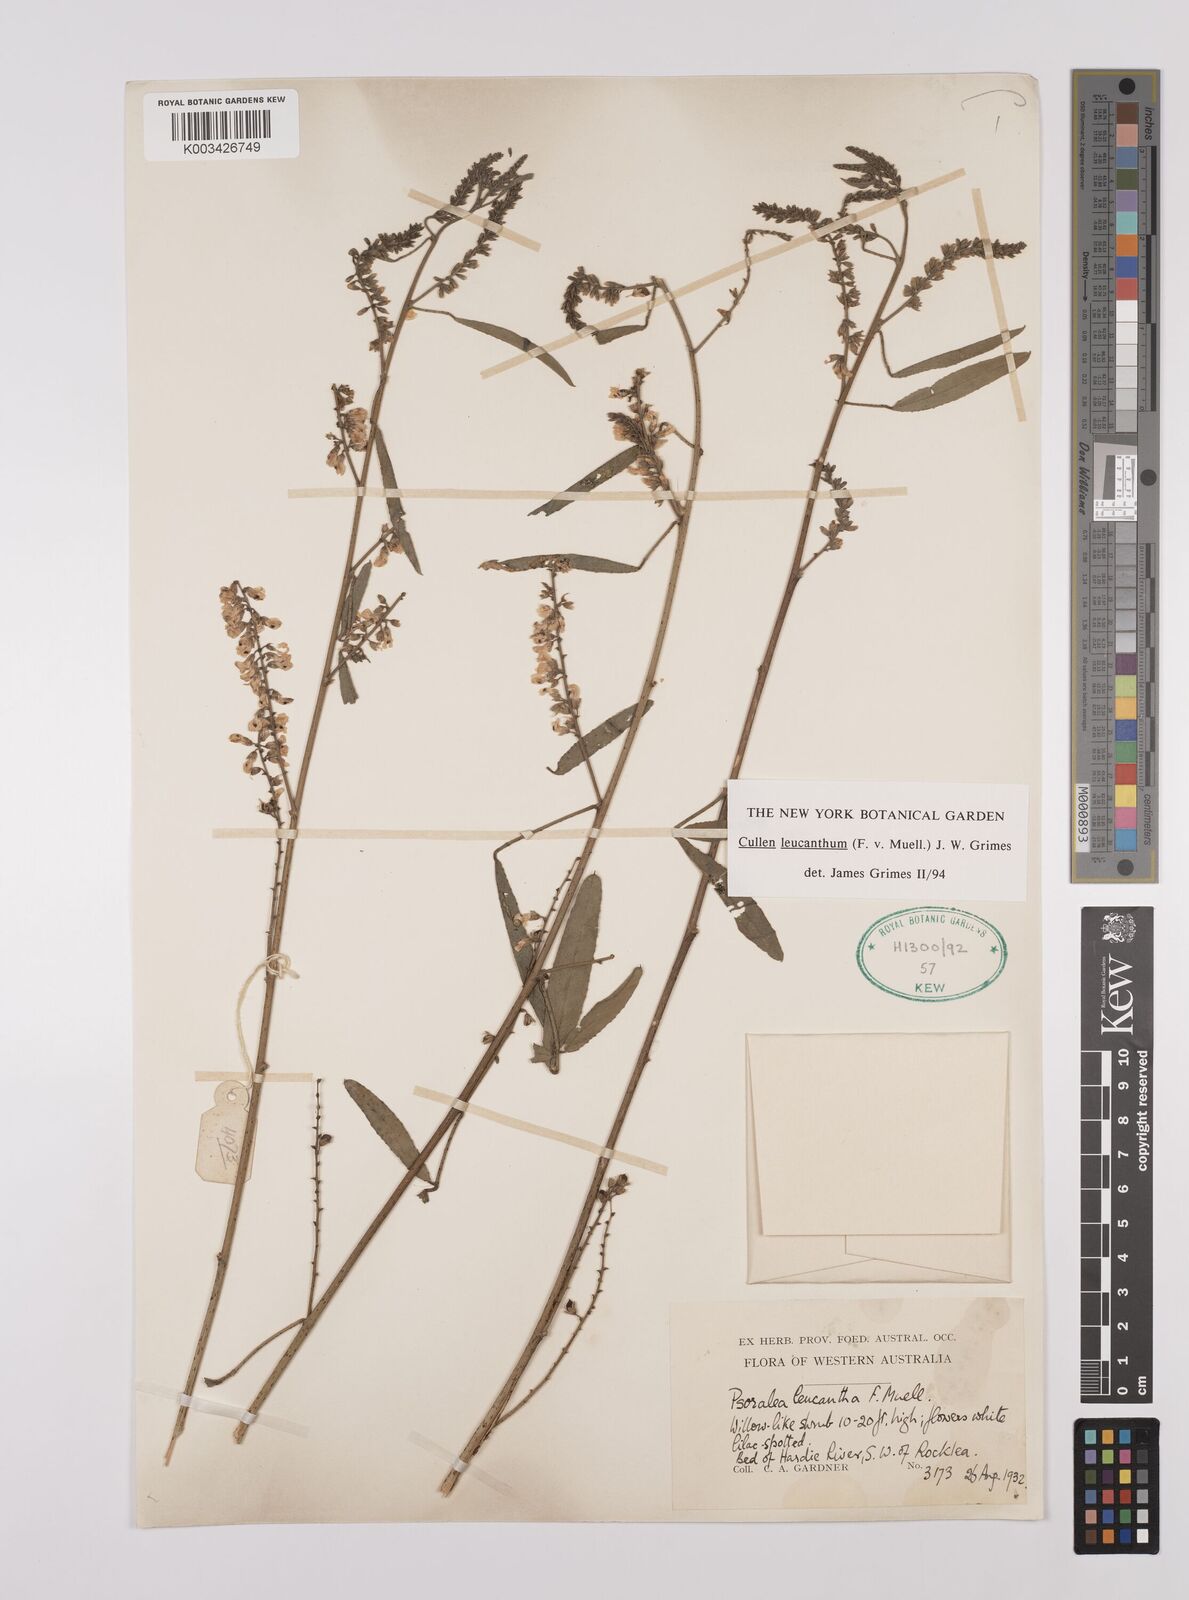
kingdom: Plantae
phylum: Tracheophyta
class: Magnoliopsida
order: Fabales
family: Fabaceae
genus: Cullen
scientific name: Cullen leucanthum
